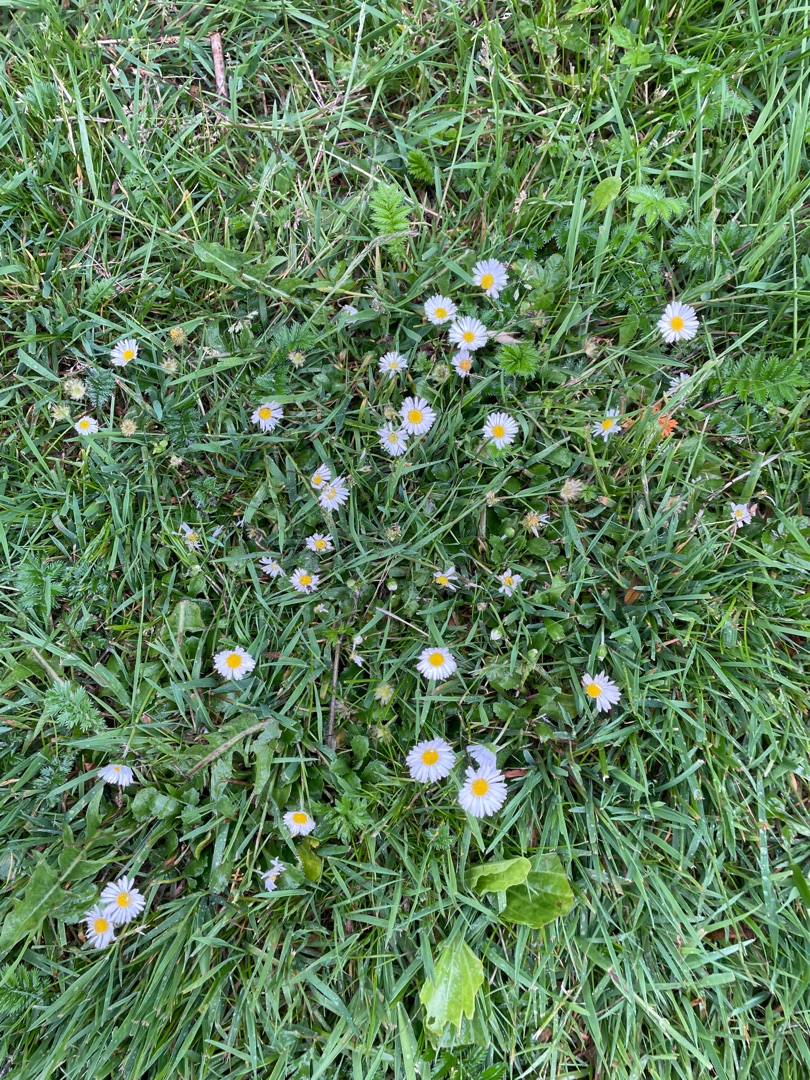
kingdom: Plantae
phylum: Tracheophyta
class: Magnoliopsida
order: Asterales
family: Asteraceae
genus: Bellis
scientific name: Bellis perennis
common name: Tusindfryd
